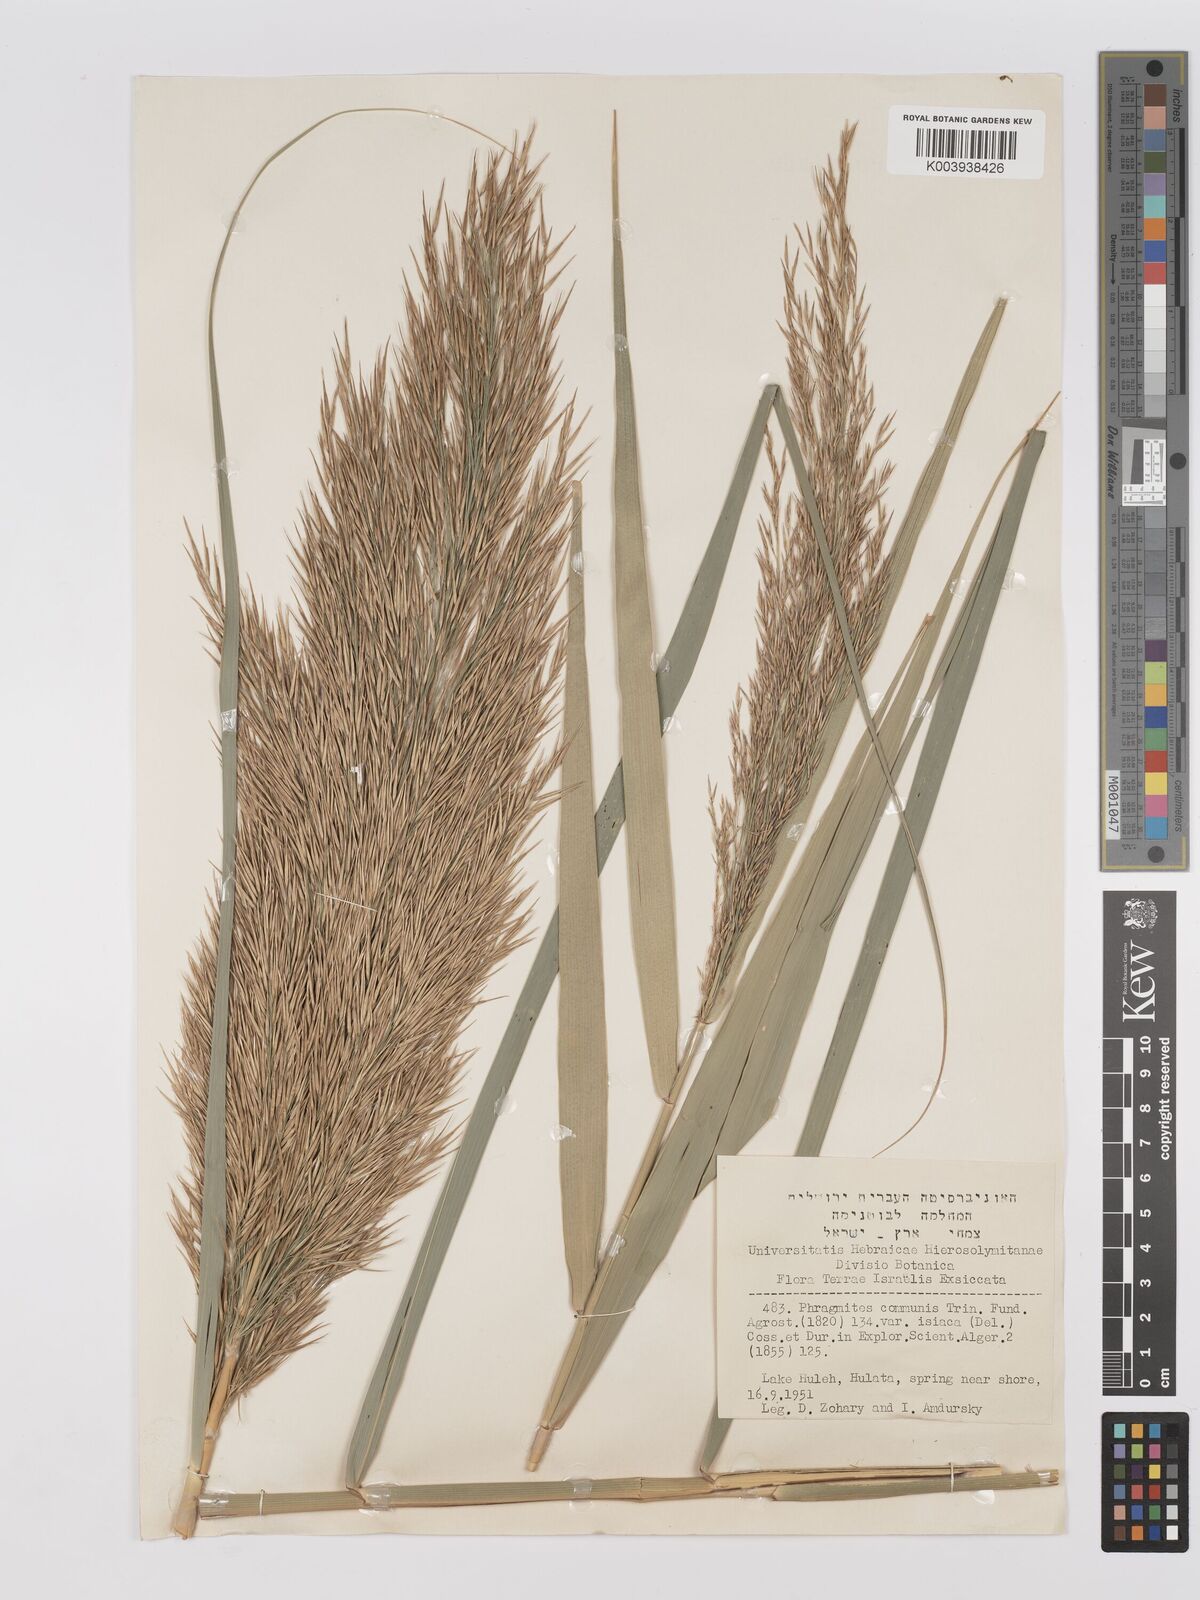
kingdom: Plantae
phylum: Tracheophyta
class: Liliopsida
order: Poales
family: Poaceae
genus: Phragmites
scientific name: Phragmites australis
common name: Common reed
